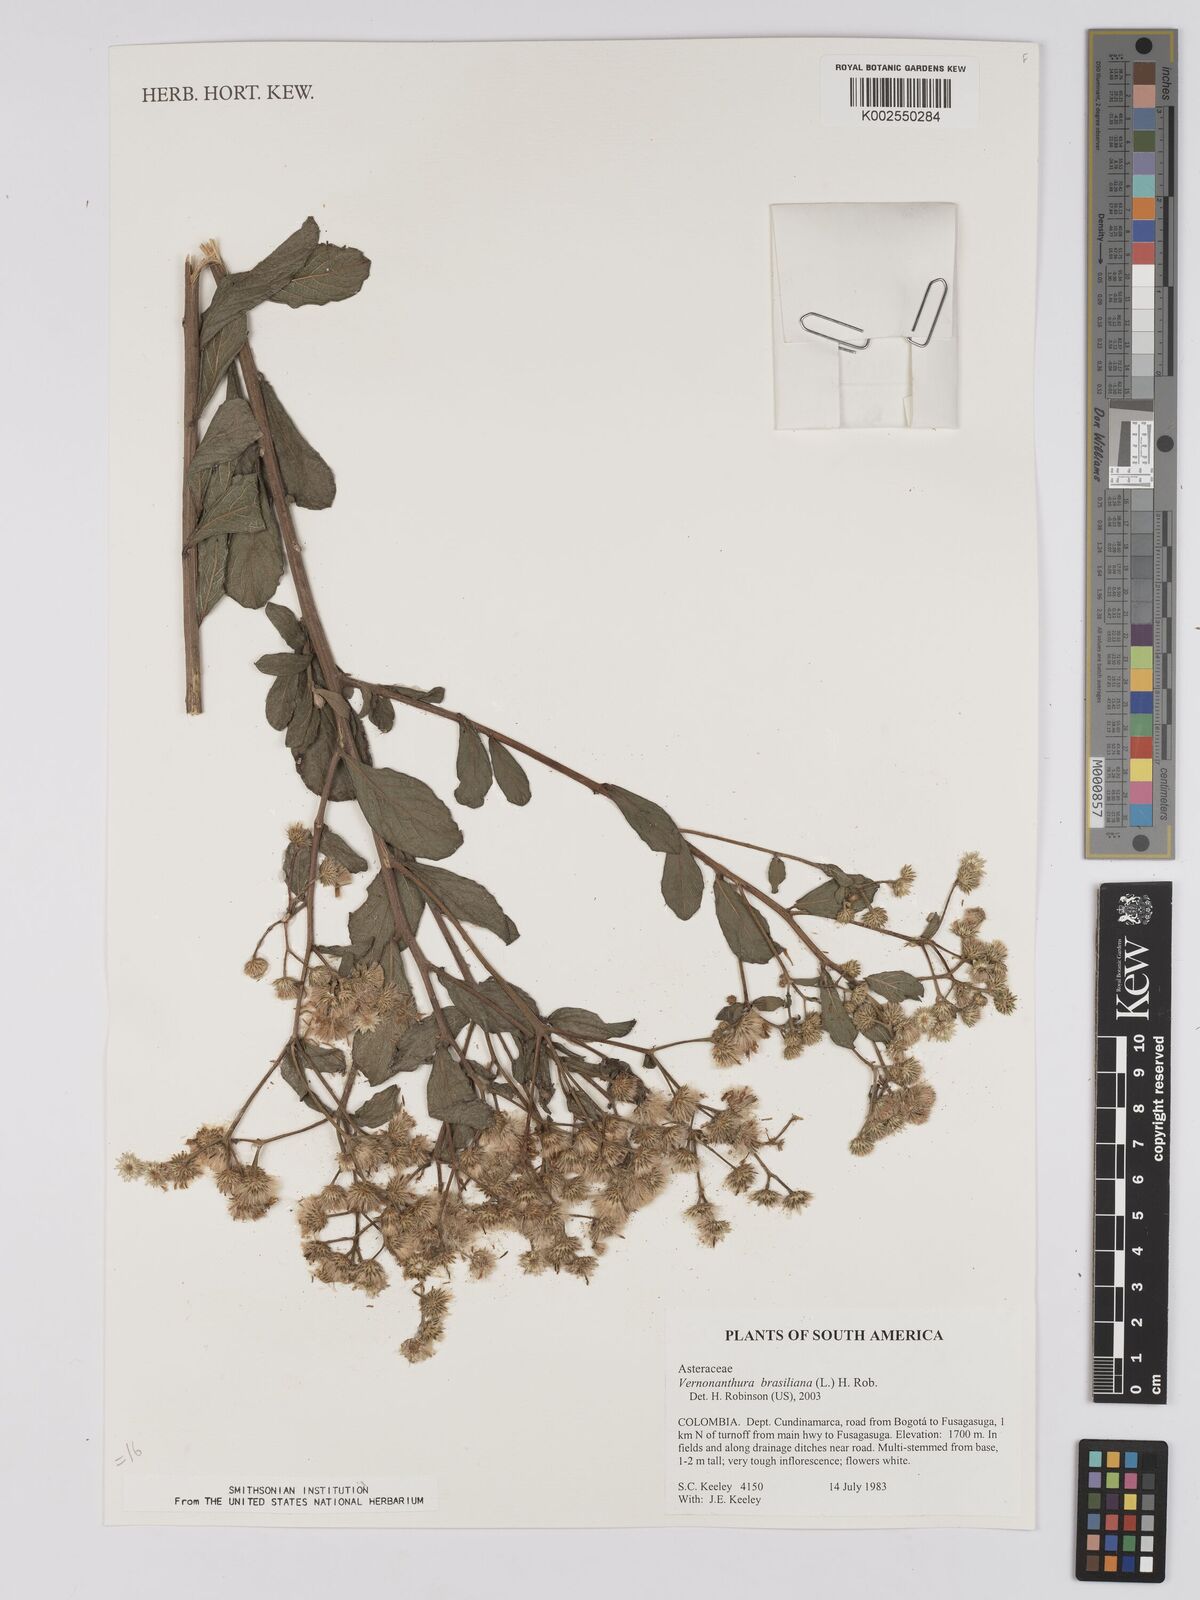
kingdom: Plantae
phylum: Tracheophyta
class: Magnoliopsida
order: Asterales
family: Asteraceae
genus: Vernonanthura
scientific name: Vernonanthura brasiliana
